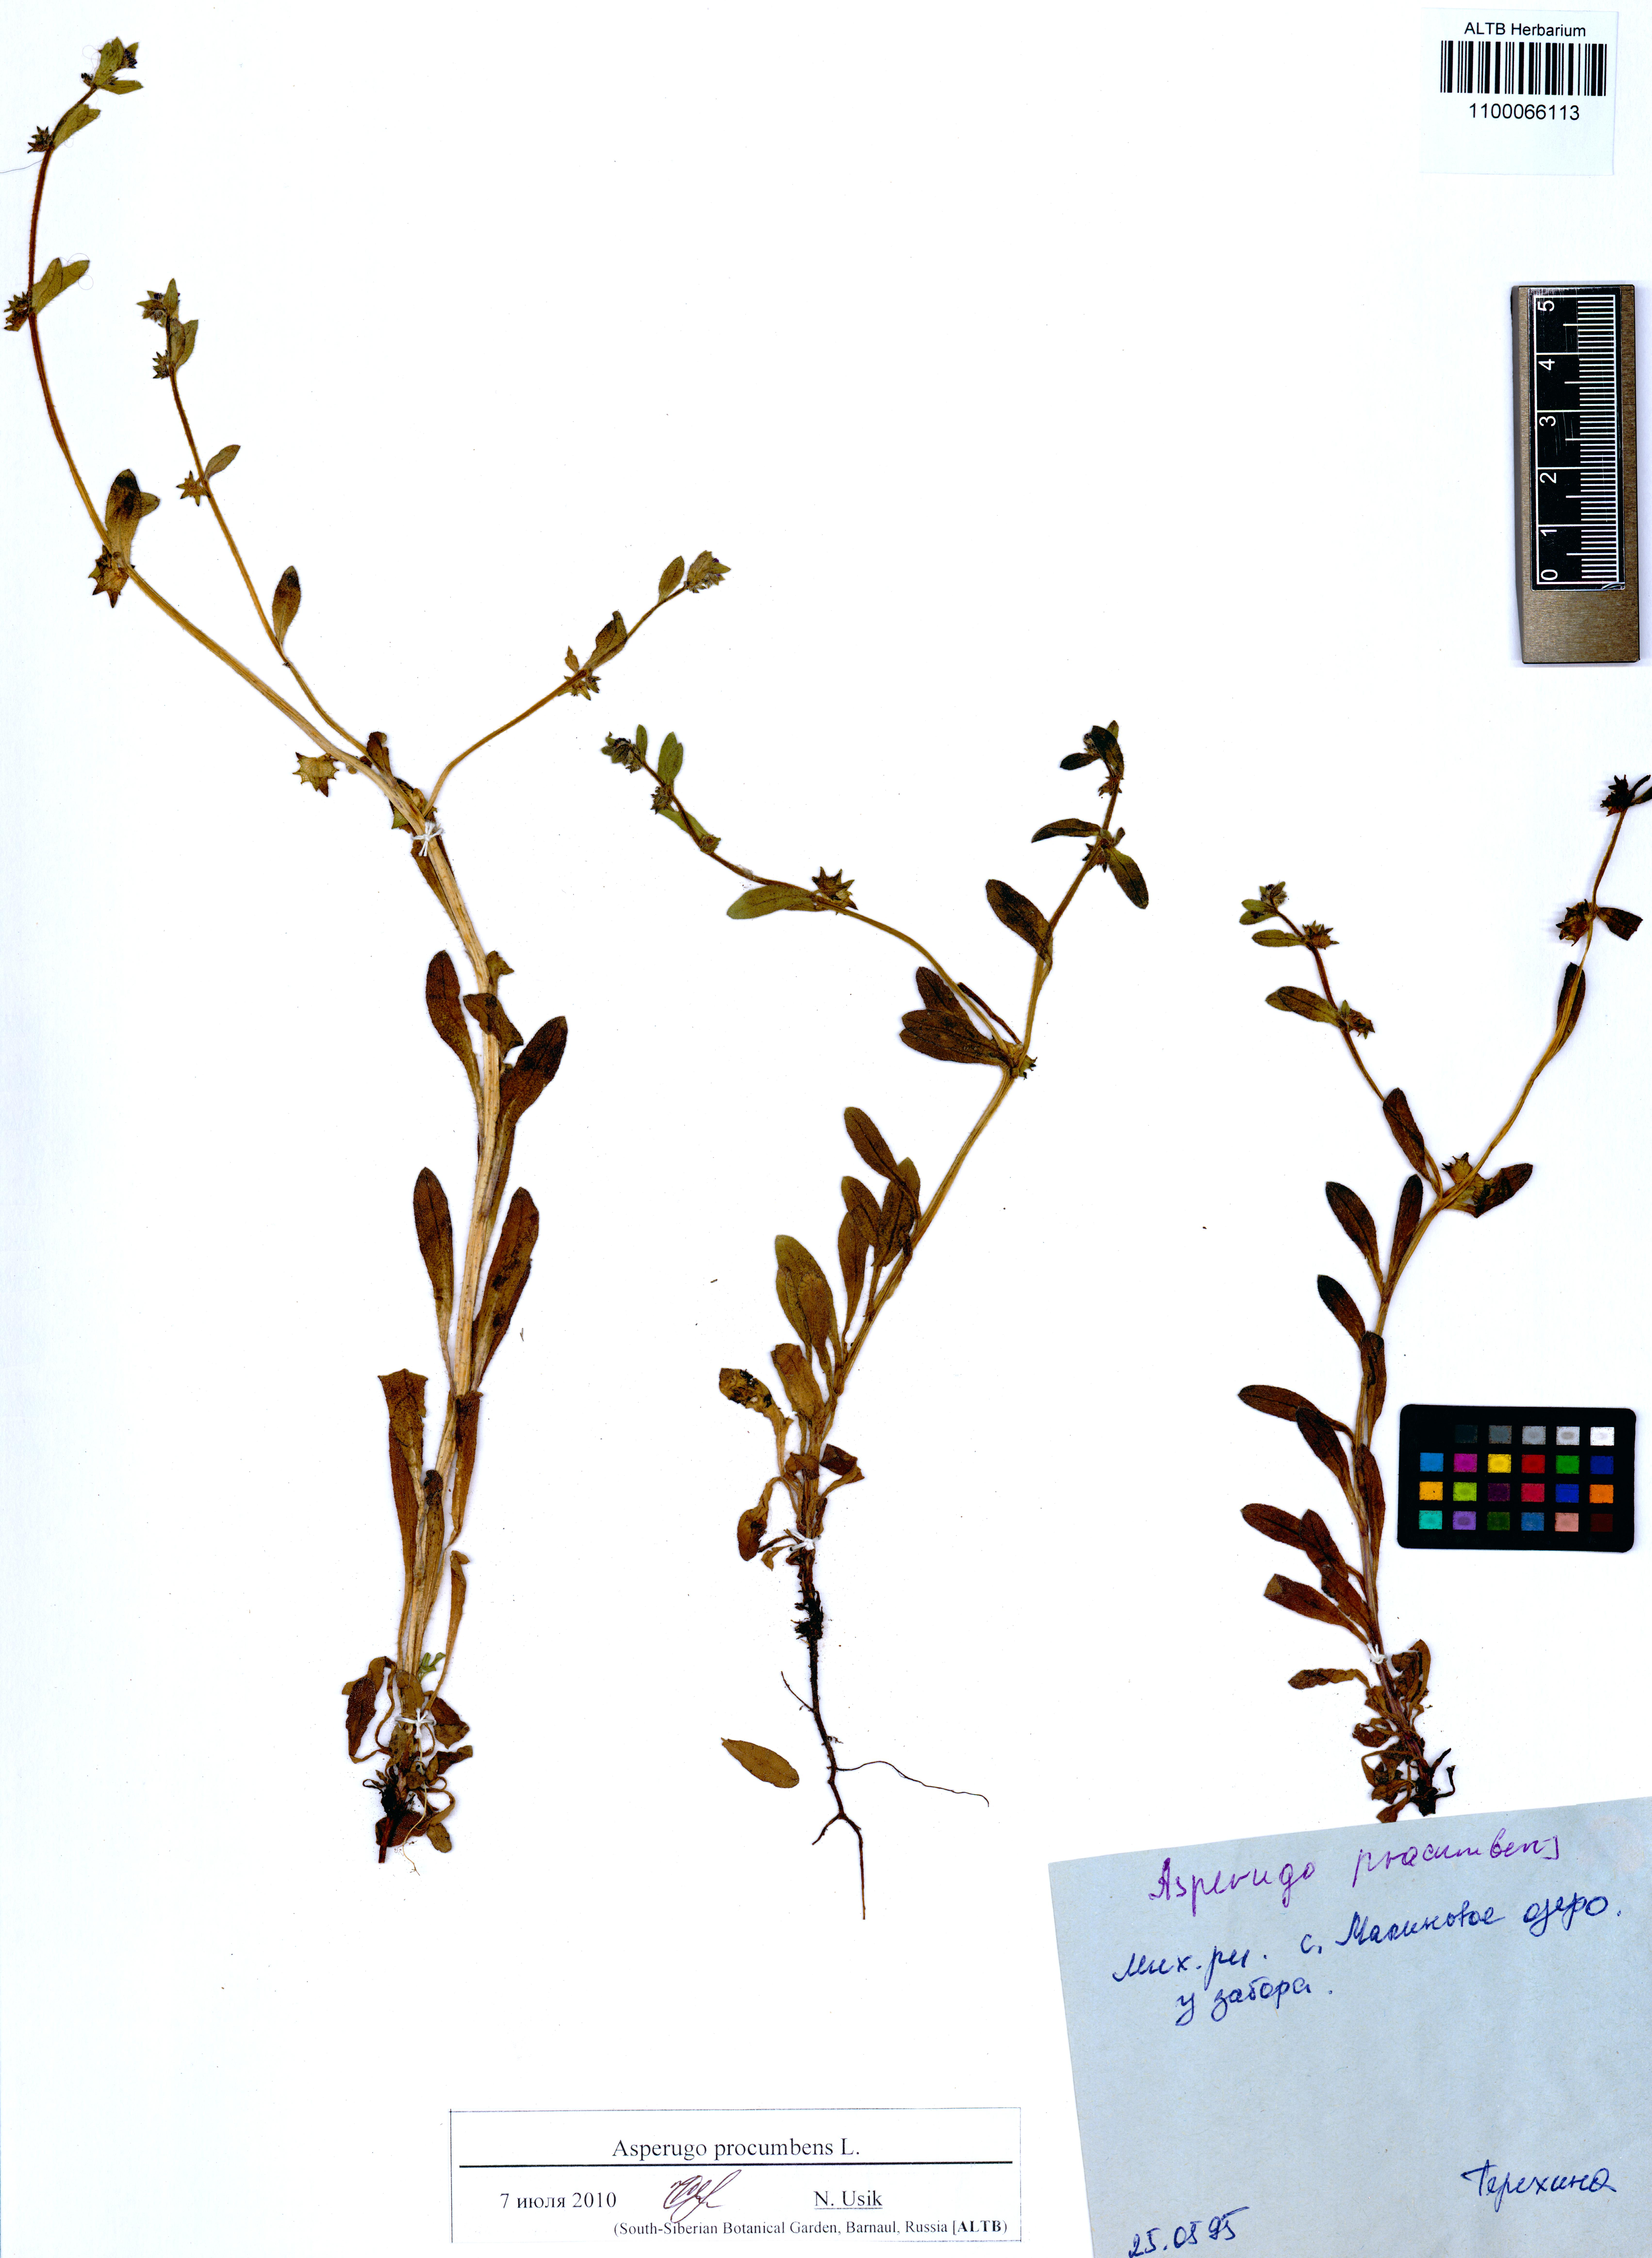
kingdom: Plantae
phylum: Tracheophyta
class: Magnoliopsida
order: Boraginales
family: Boraginaceae
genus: Asperugo
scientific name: Asperugo procumbens
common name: Madwort
